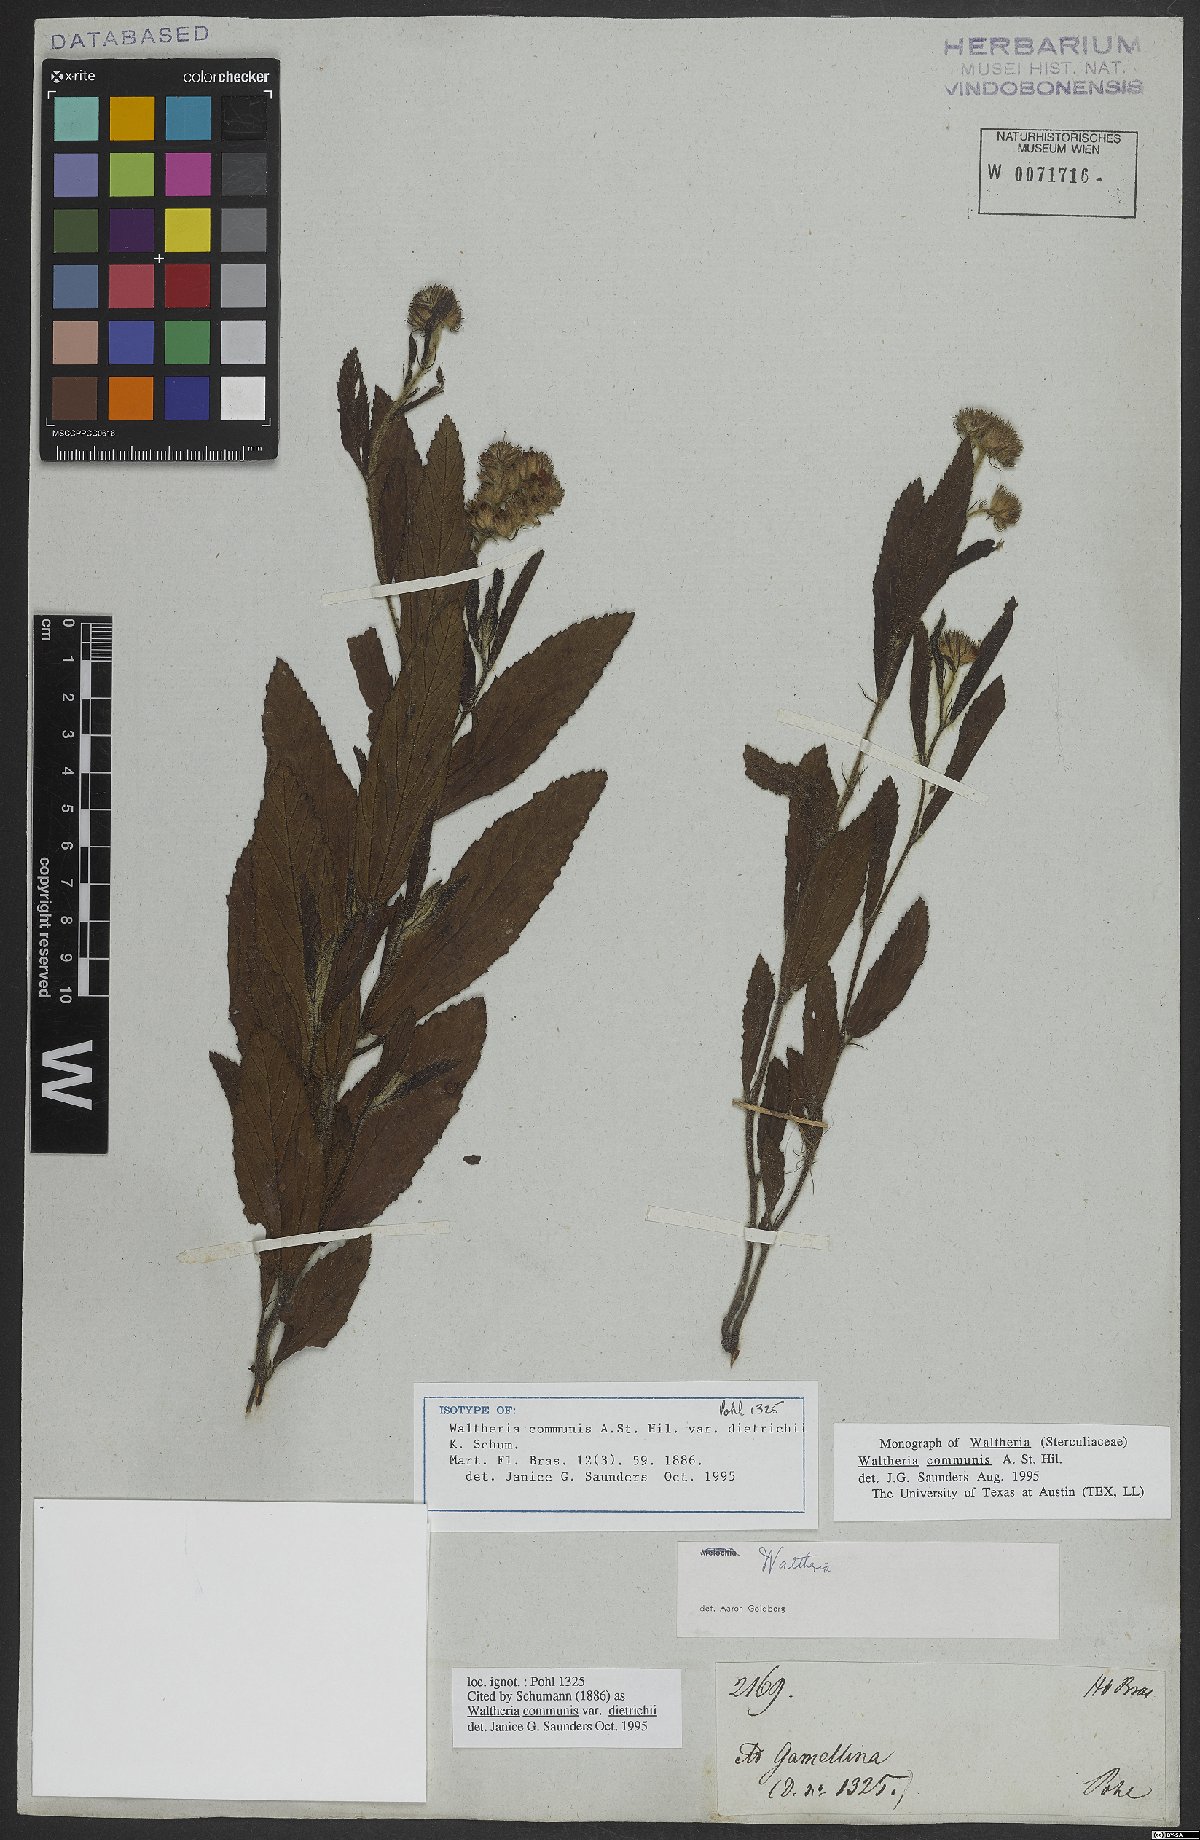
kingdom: Plantae
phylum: Tracheophyta
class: Magnoliopsida
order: Malvales
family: Malvaceae
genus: Waltheria
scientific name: Waltheria communis
